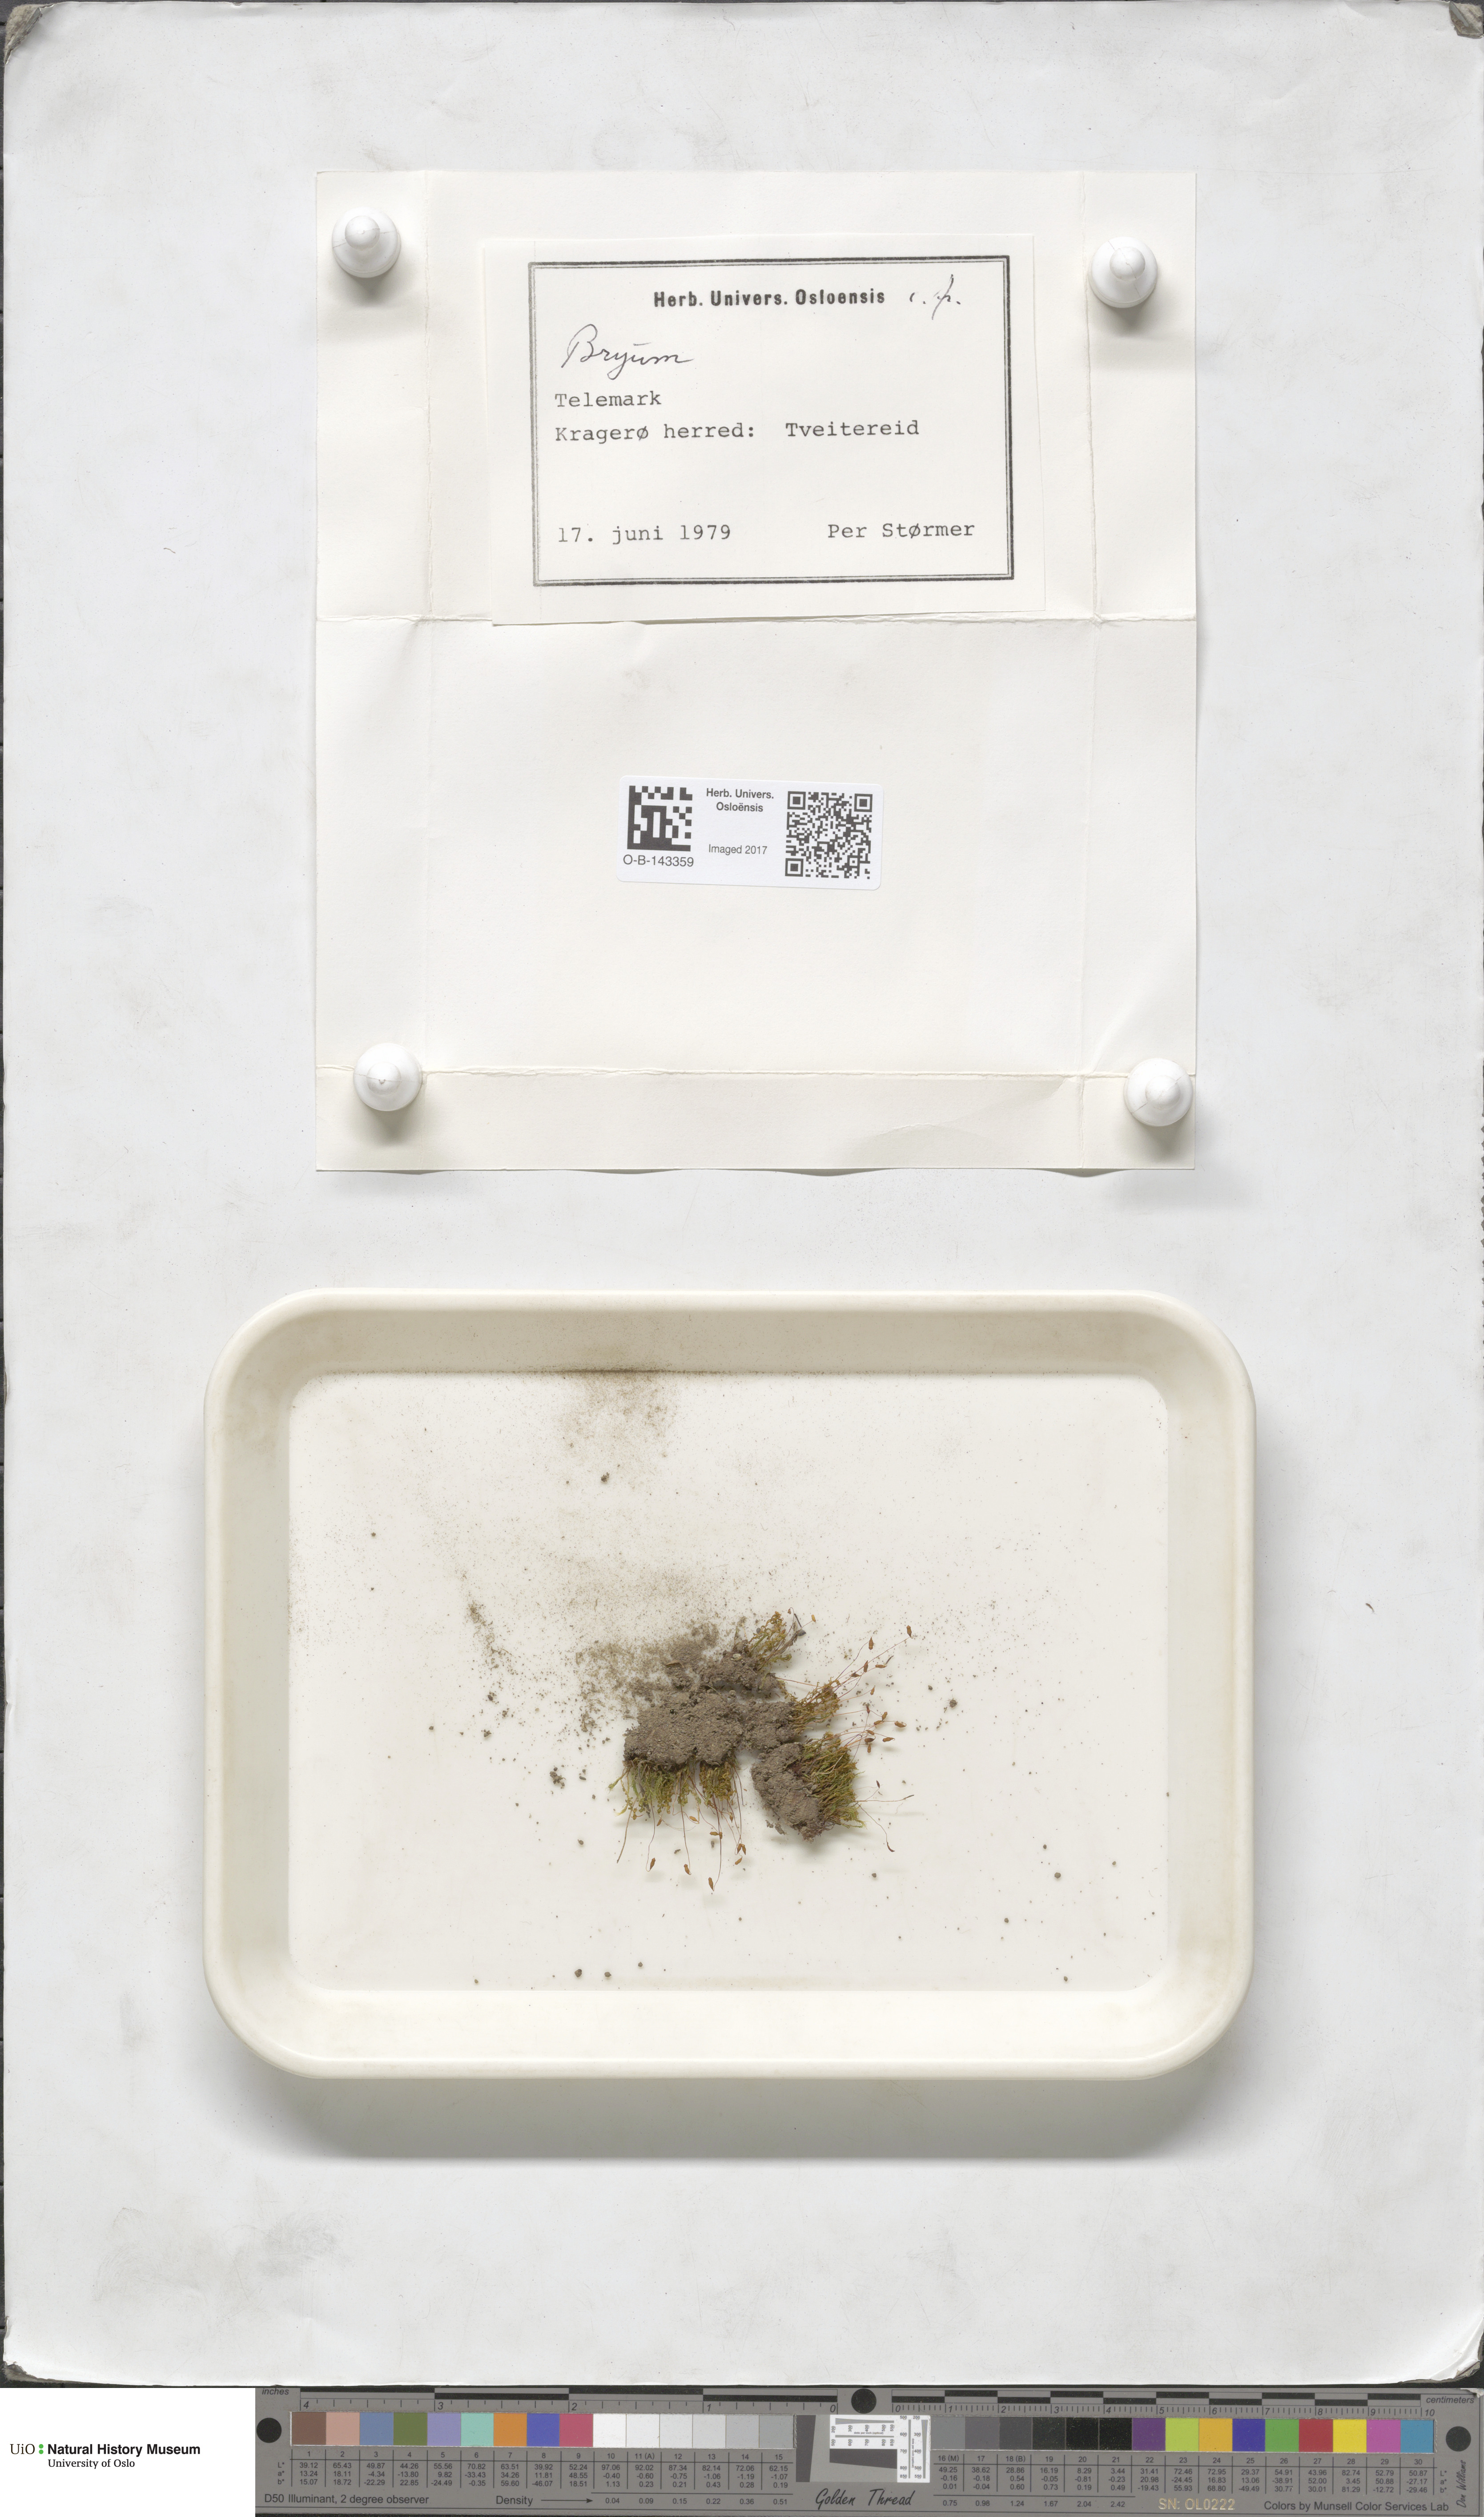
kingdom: Plantae
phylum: Bryophyta
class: Bryopsida
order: Bryales
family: Bryaceae
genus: Bryum
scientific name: Bryum
